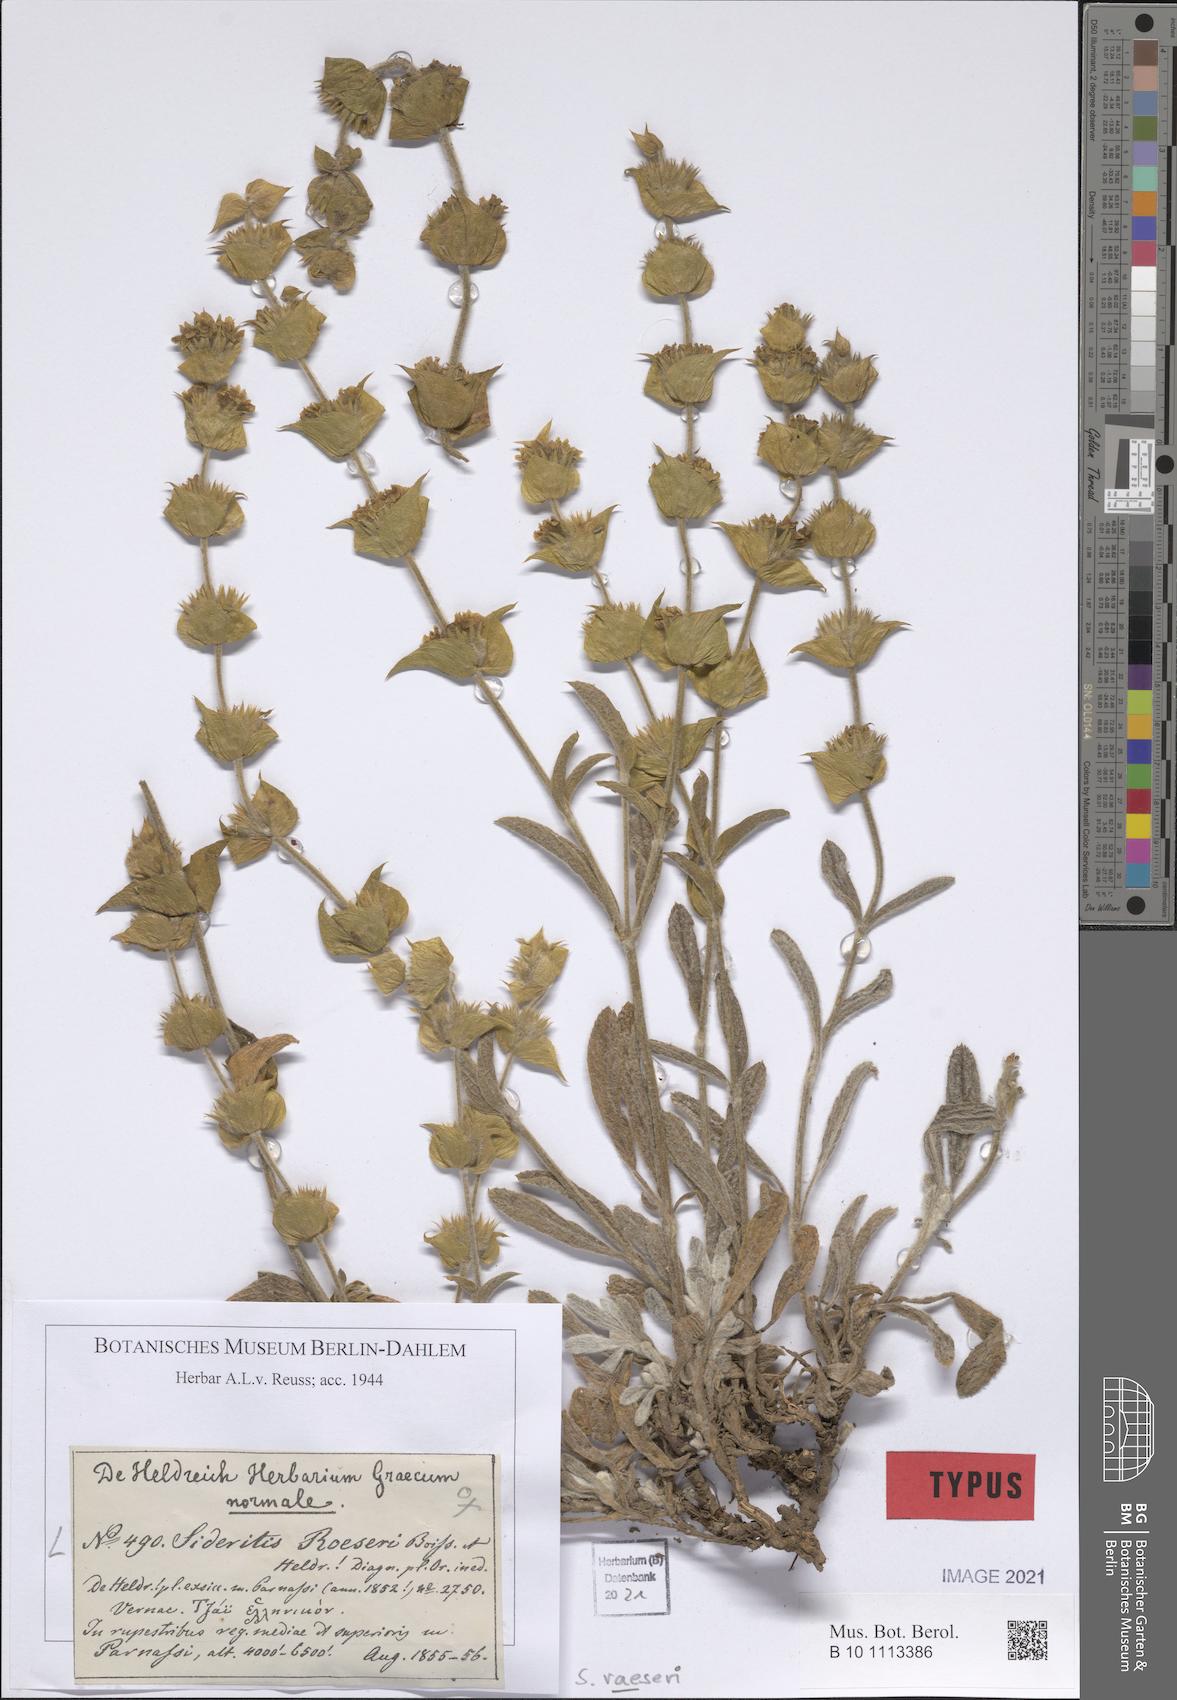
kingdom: Plantae
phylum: Tracheophyta
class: Magnoliopsida
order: Lamiales
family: Lamiaceae
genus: Sideritis
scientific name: Sideritis raeseri
